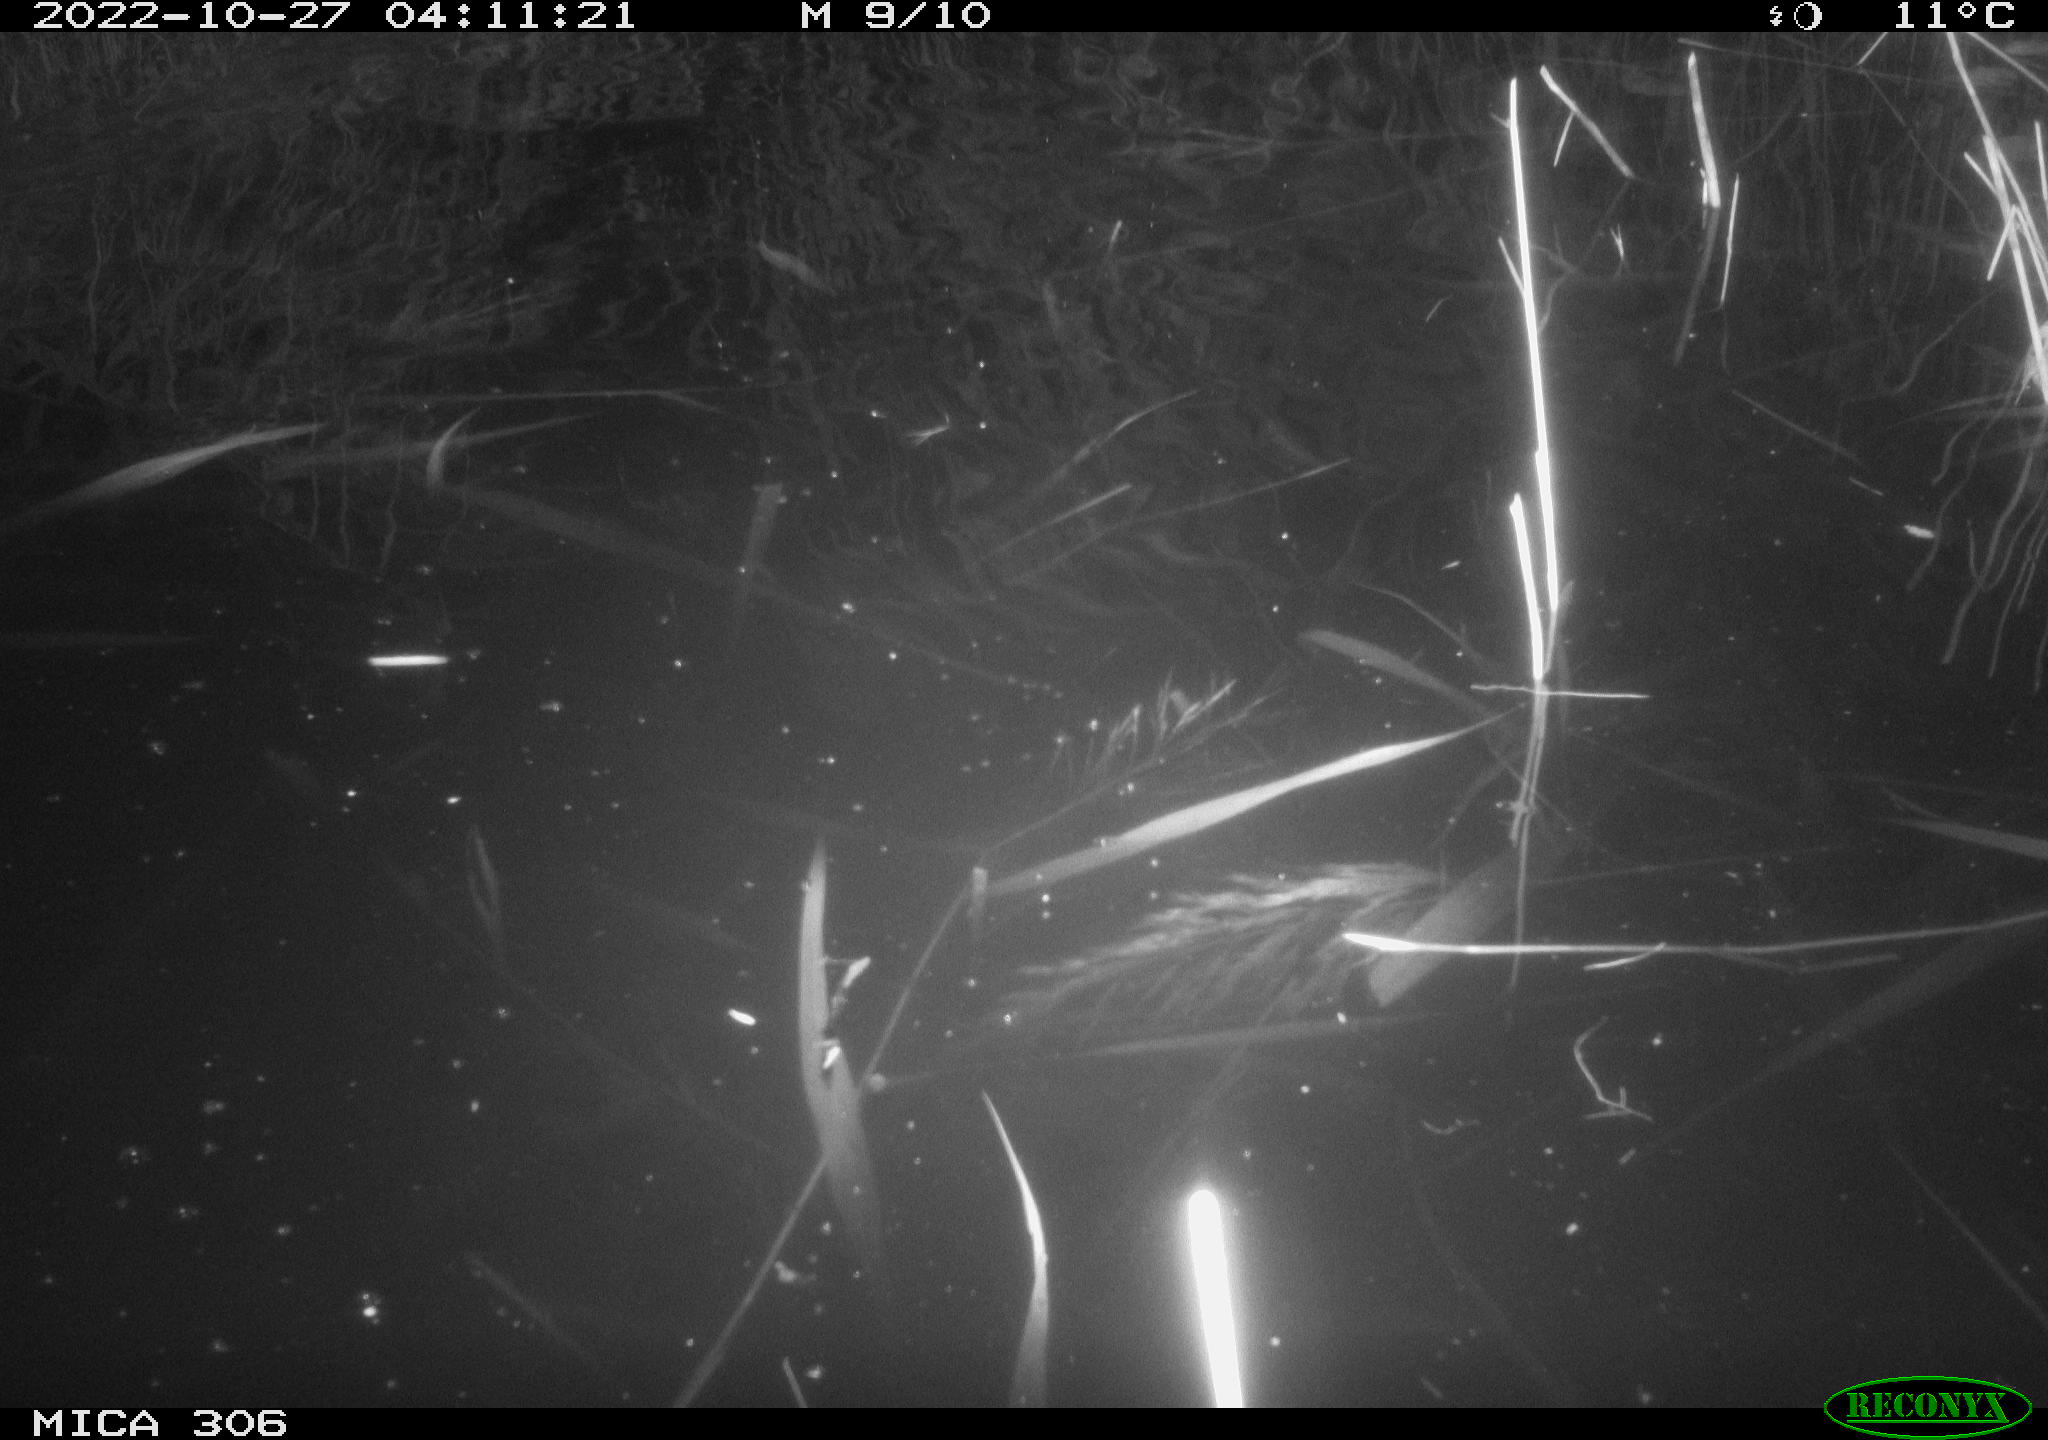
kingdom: Animalia
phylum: Chordata
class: Mammalia
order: Rodentia
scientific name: Rodentia
